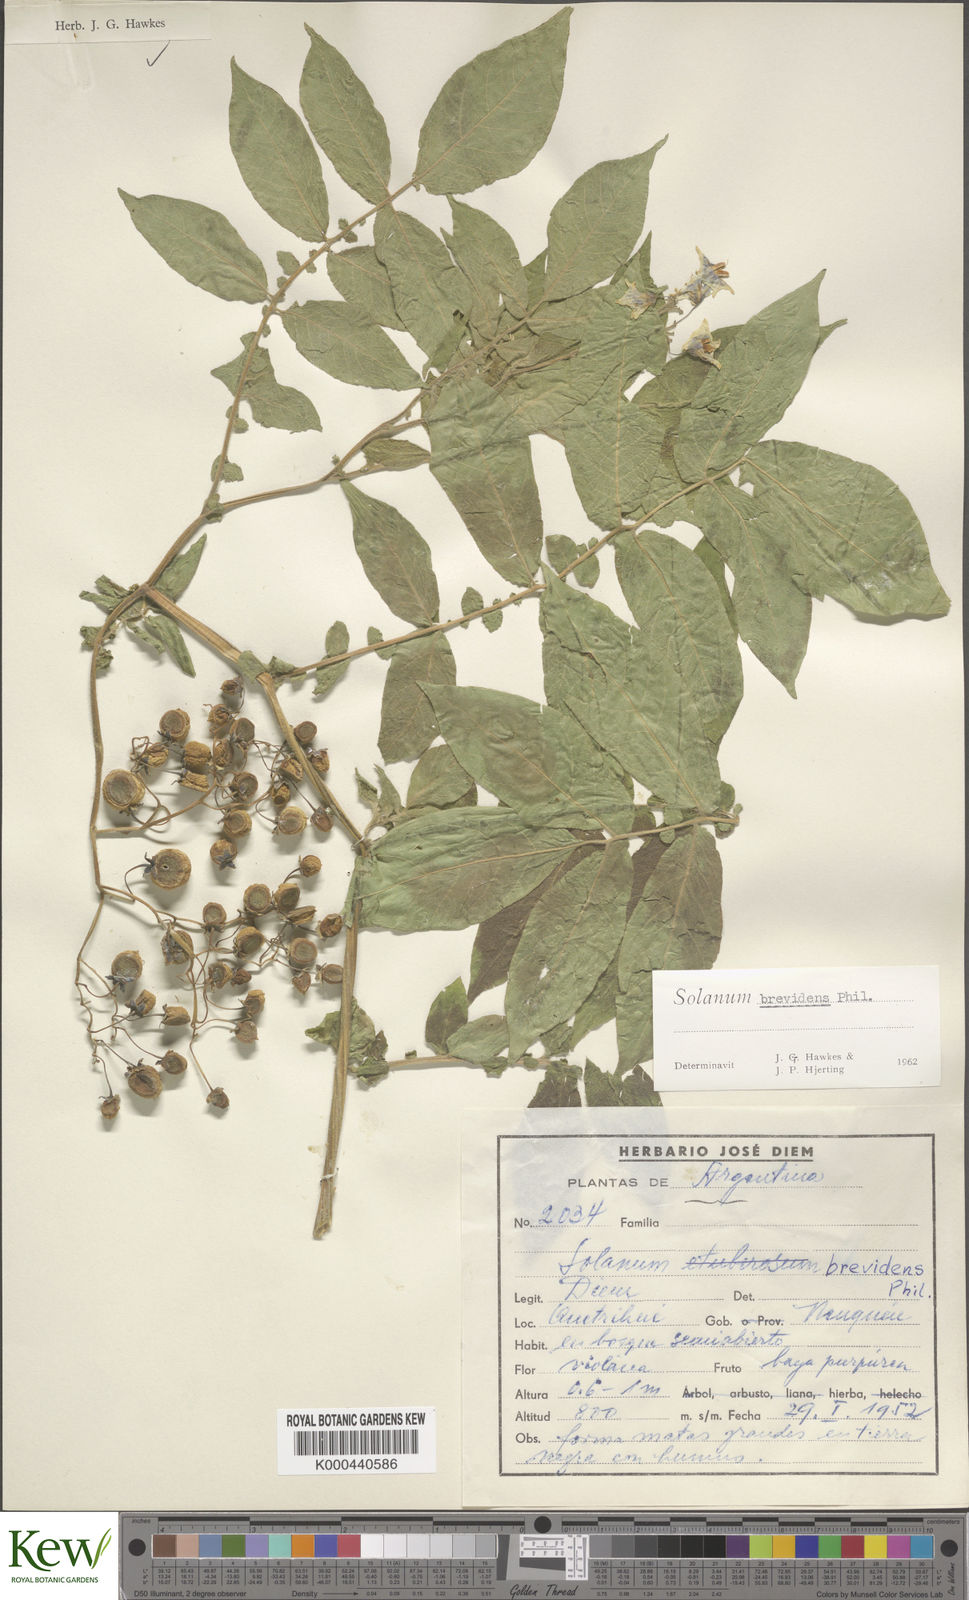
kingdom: Plantae
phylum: Tracheophyta
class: Magnoliopsida
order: Solanales
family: Solanaceae
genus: Solanum
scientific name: Solanum palustre
